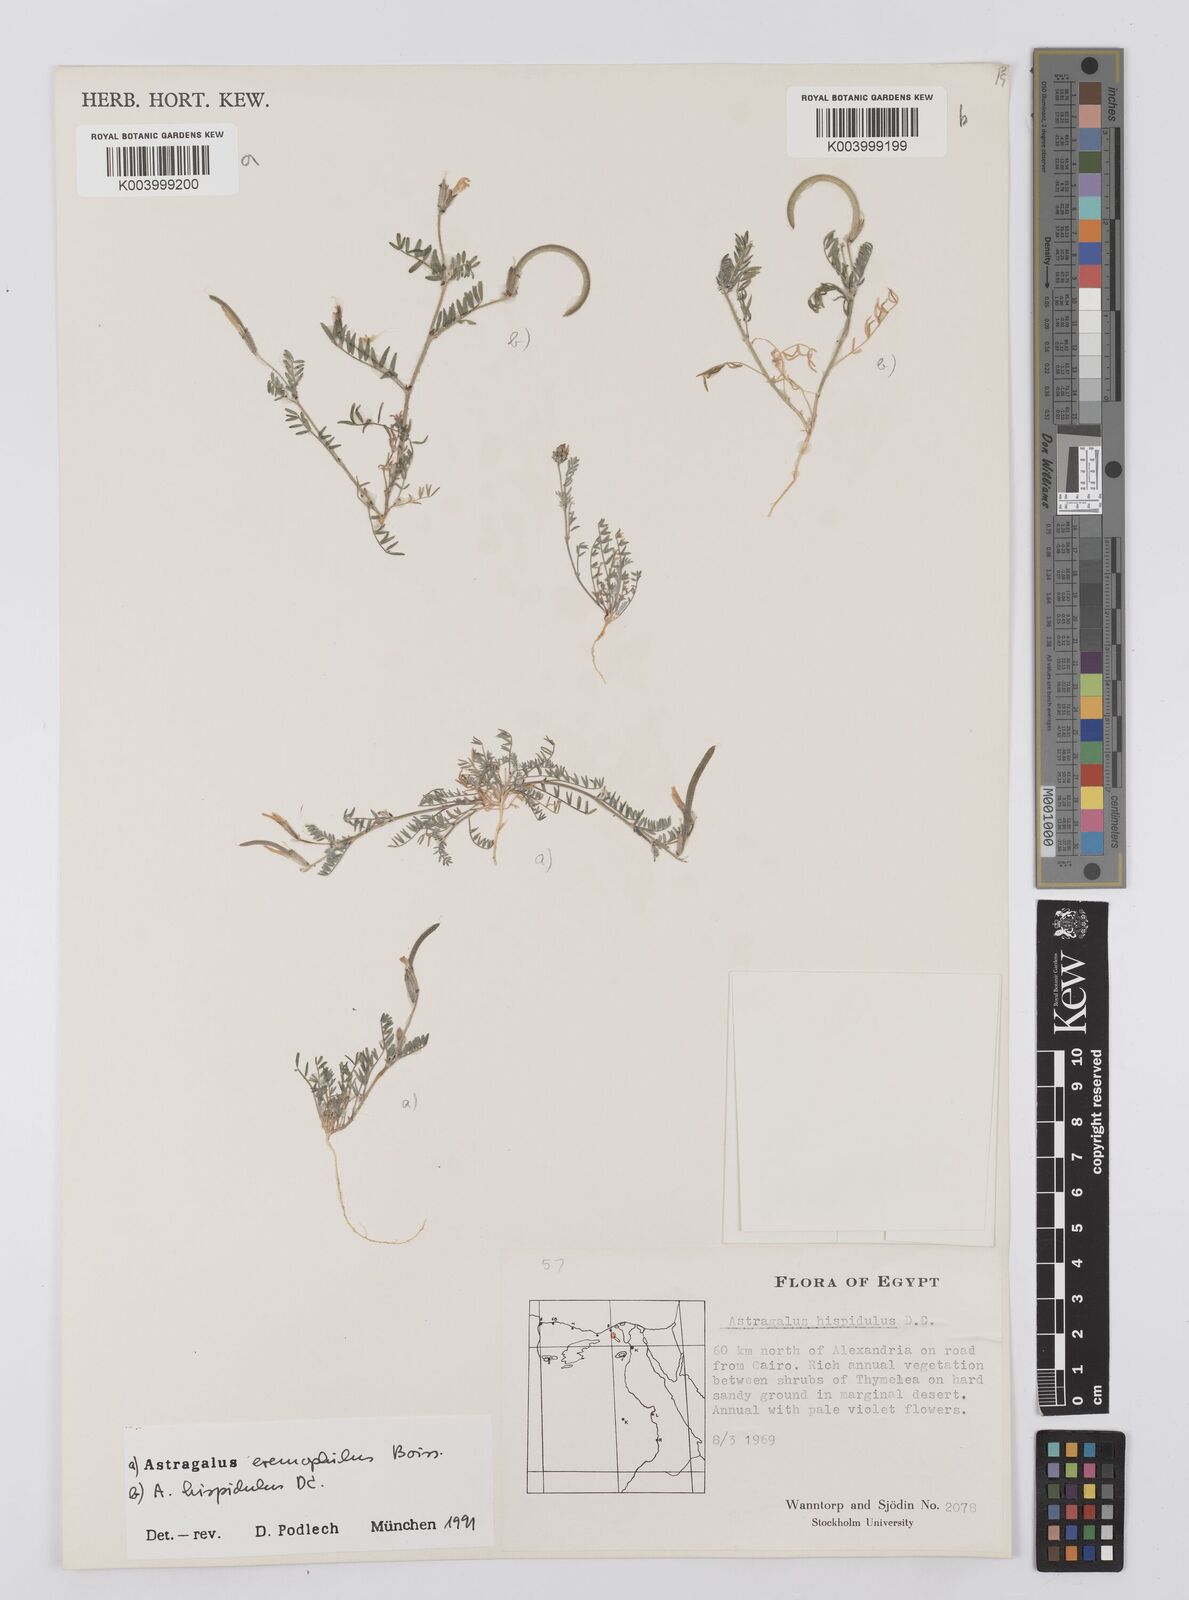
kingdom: Plantae
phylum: Tracheophyta
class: Magnoliopsida
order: Fabales
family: Fabaceae
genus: Astragalus
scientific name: Astragalus hispidulus
